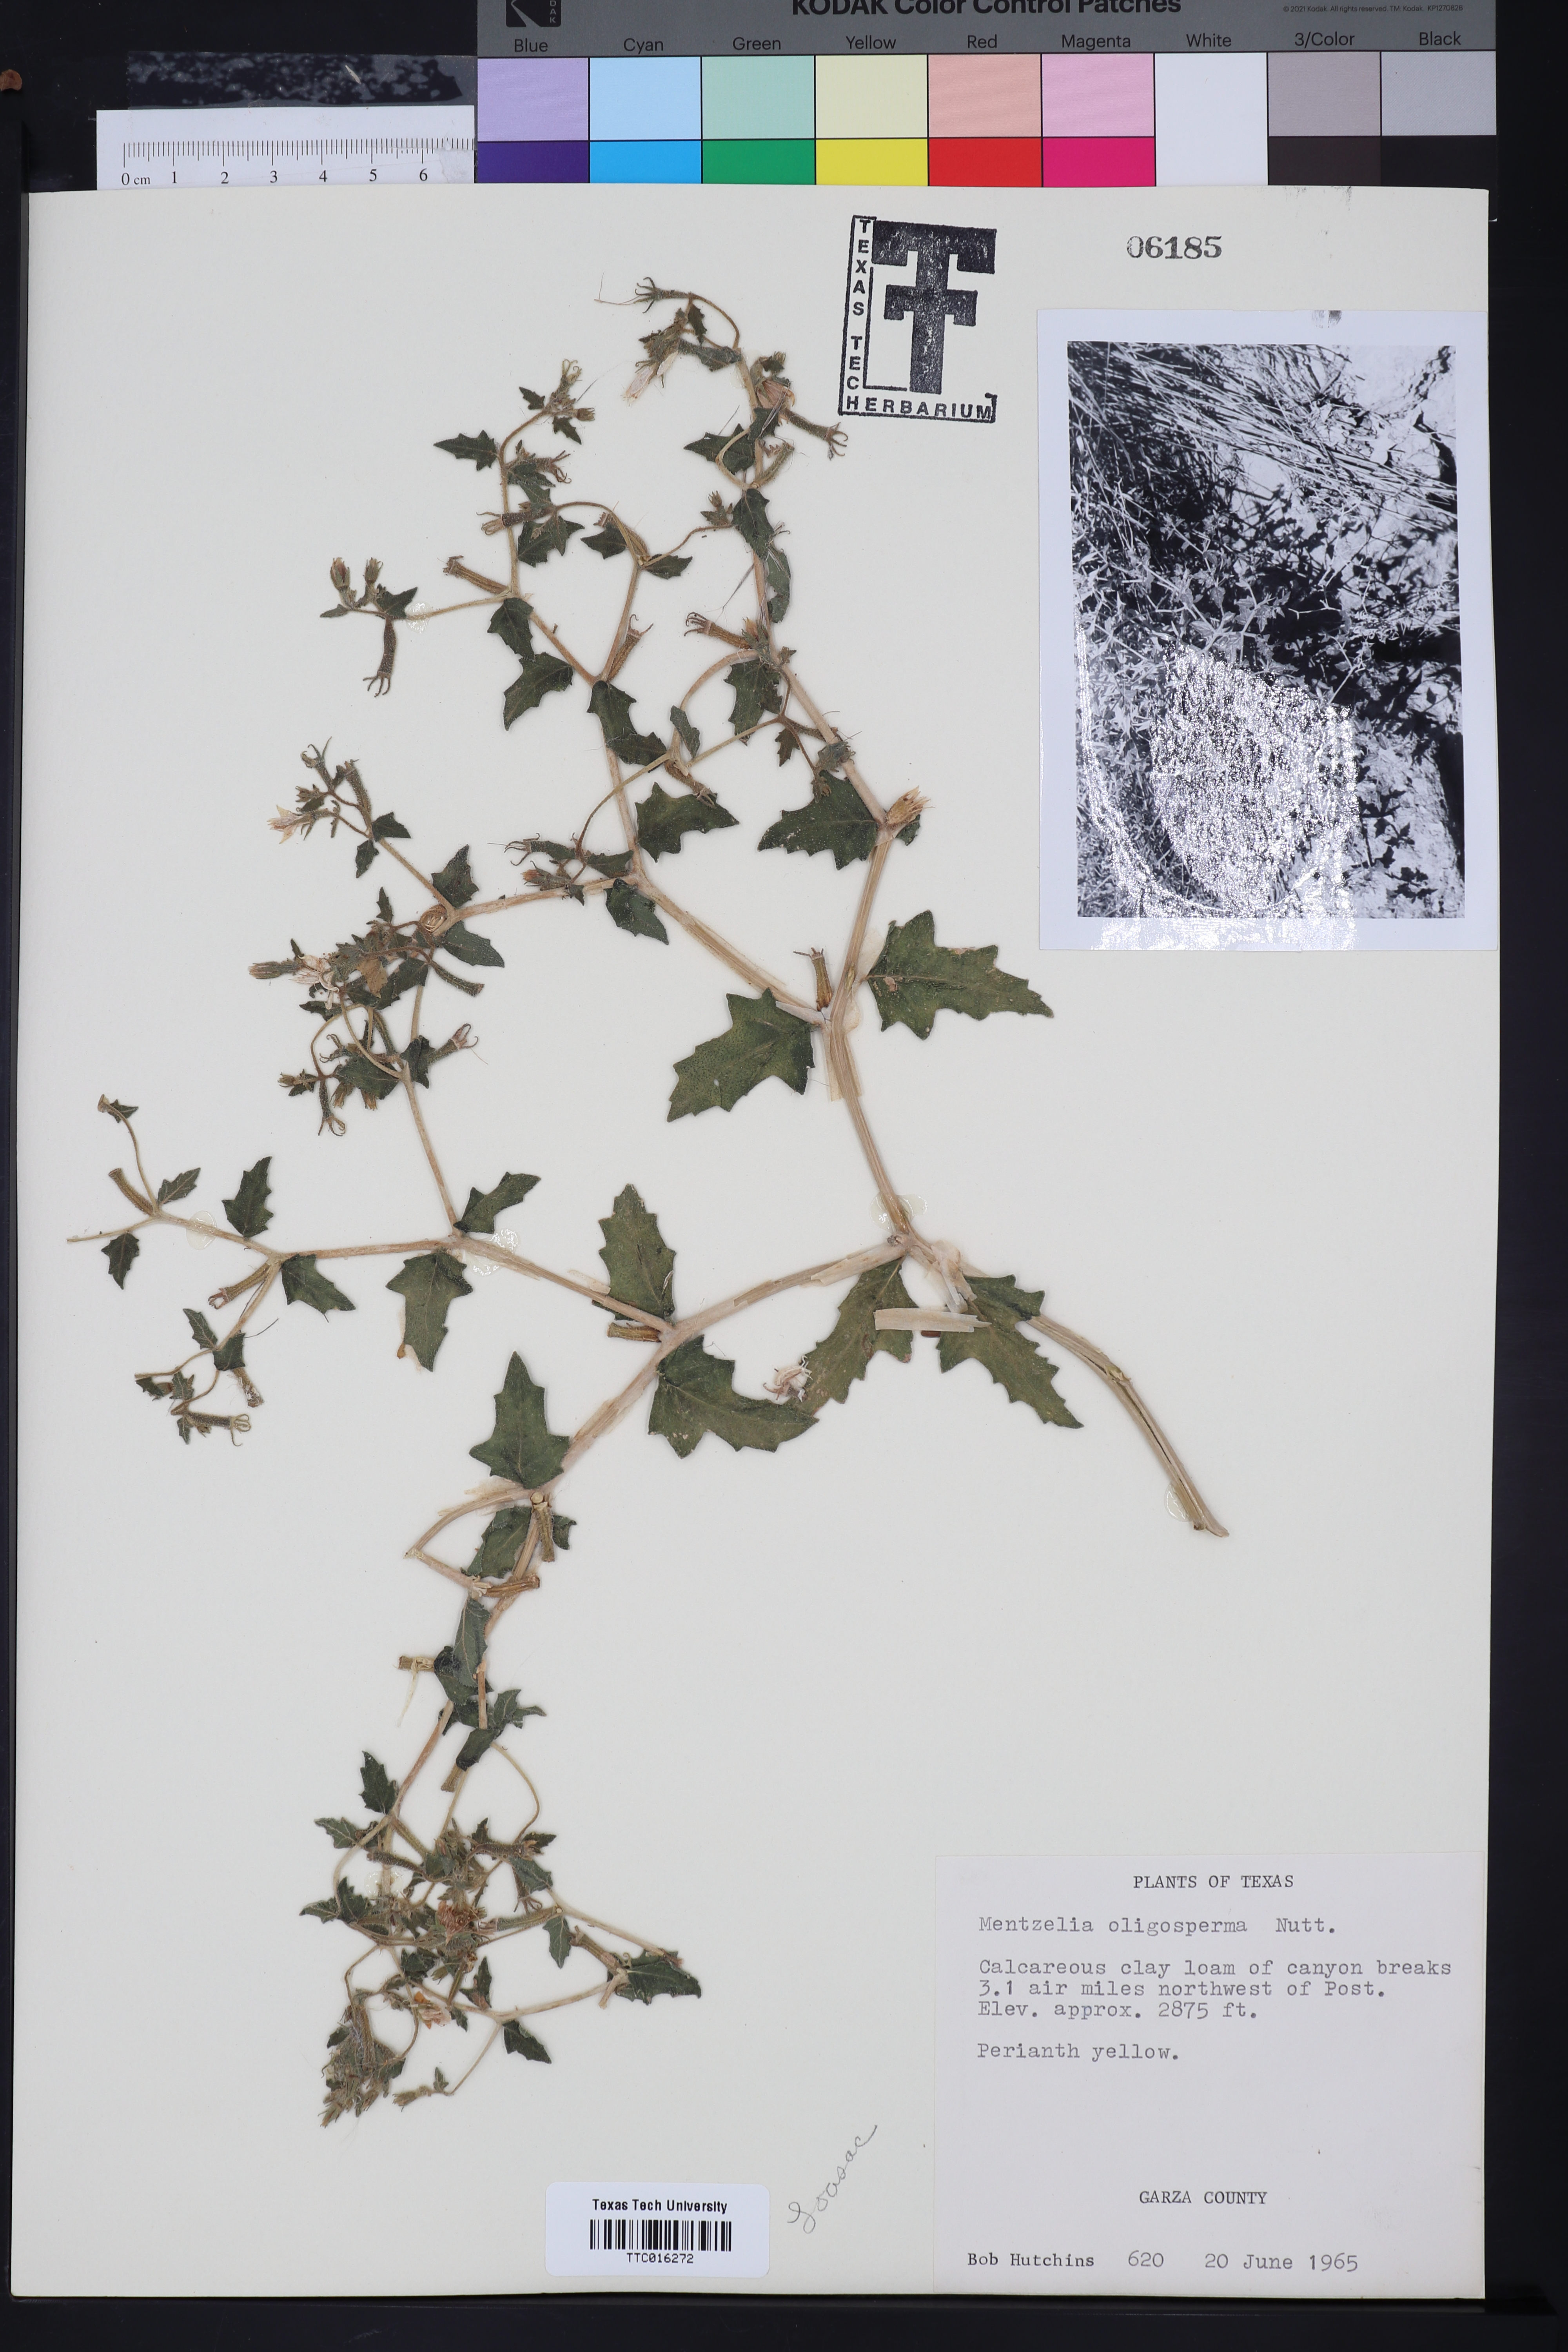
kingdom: Plantae
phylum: Tracheophyta
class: Magnoliopsida
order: Cornales
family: Loasaceae
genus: Mentzelia
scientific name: Mentzelia oligosperma
